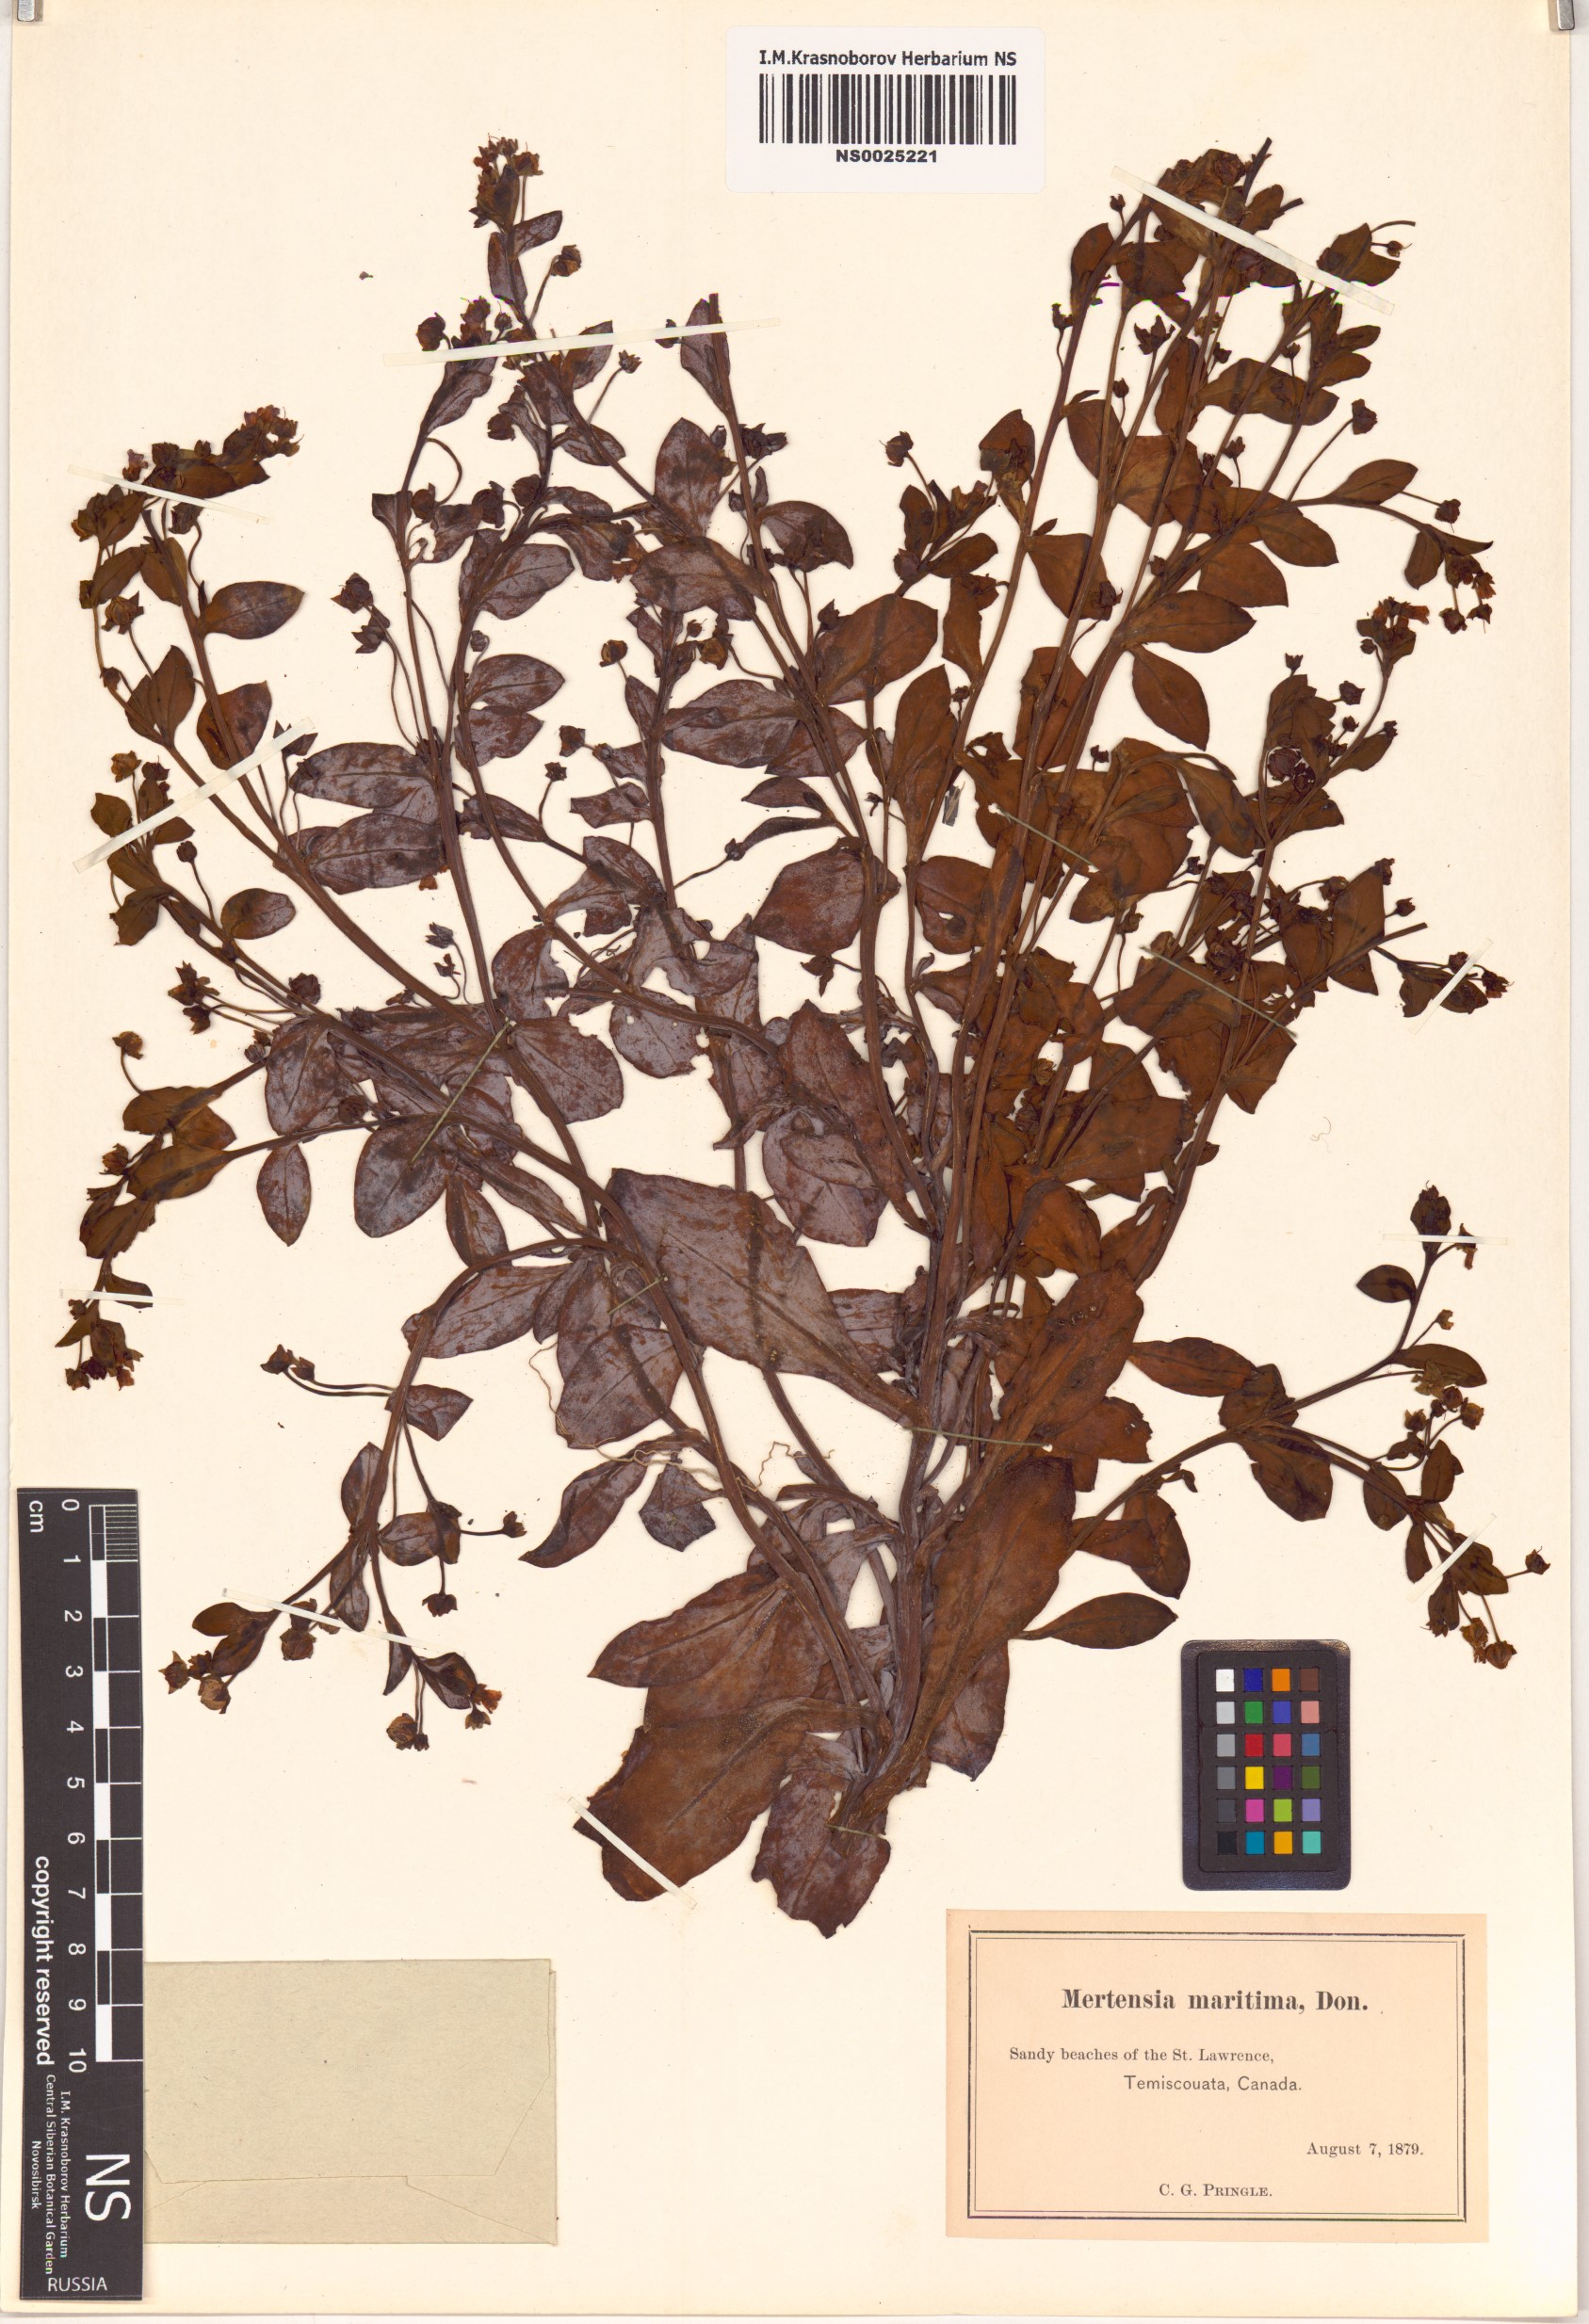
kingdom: Plantae
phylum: Tracheophyta
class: Magnoliopsida
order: Boraginales
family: Boraginaceae
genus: Mertensia
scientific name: Mertensia maritima
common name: Oysterplant
